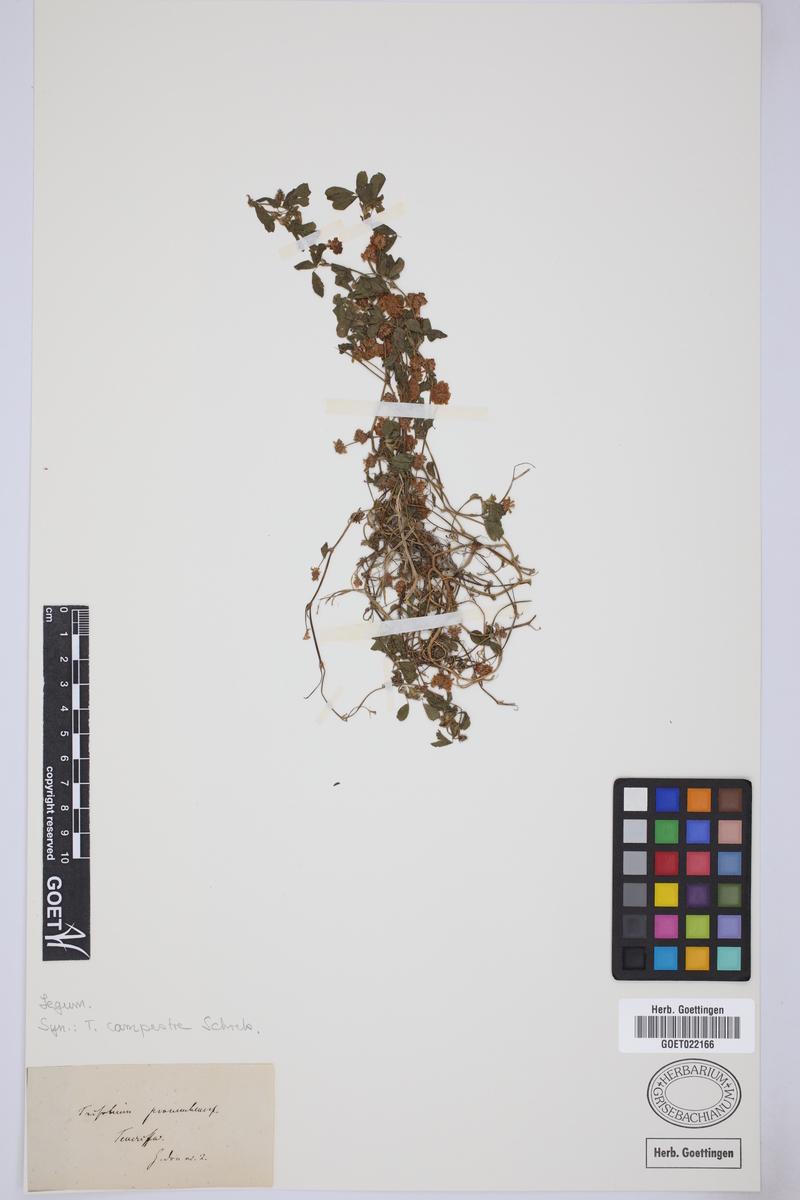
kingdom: Plantae
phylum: Tracheophyta
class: Magnoliopsida
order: Fabales
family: Fabaceae
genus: Trifolium
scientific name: Trifolium campestre
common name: Field clover
